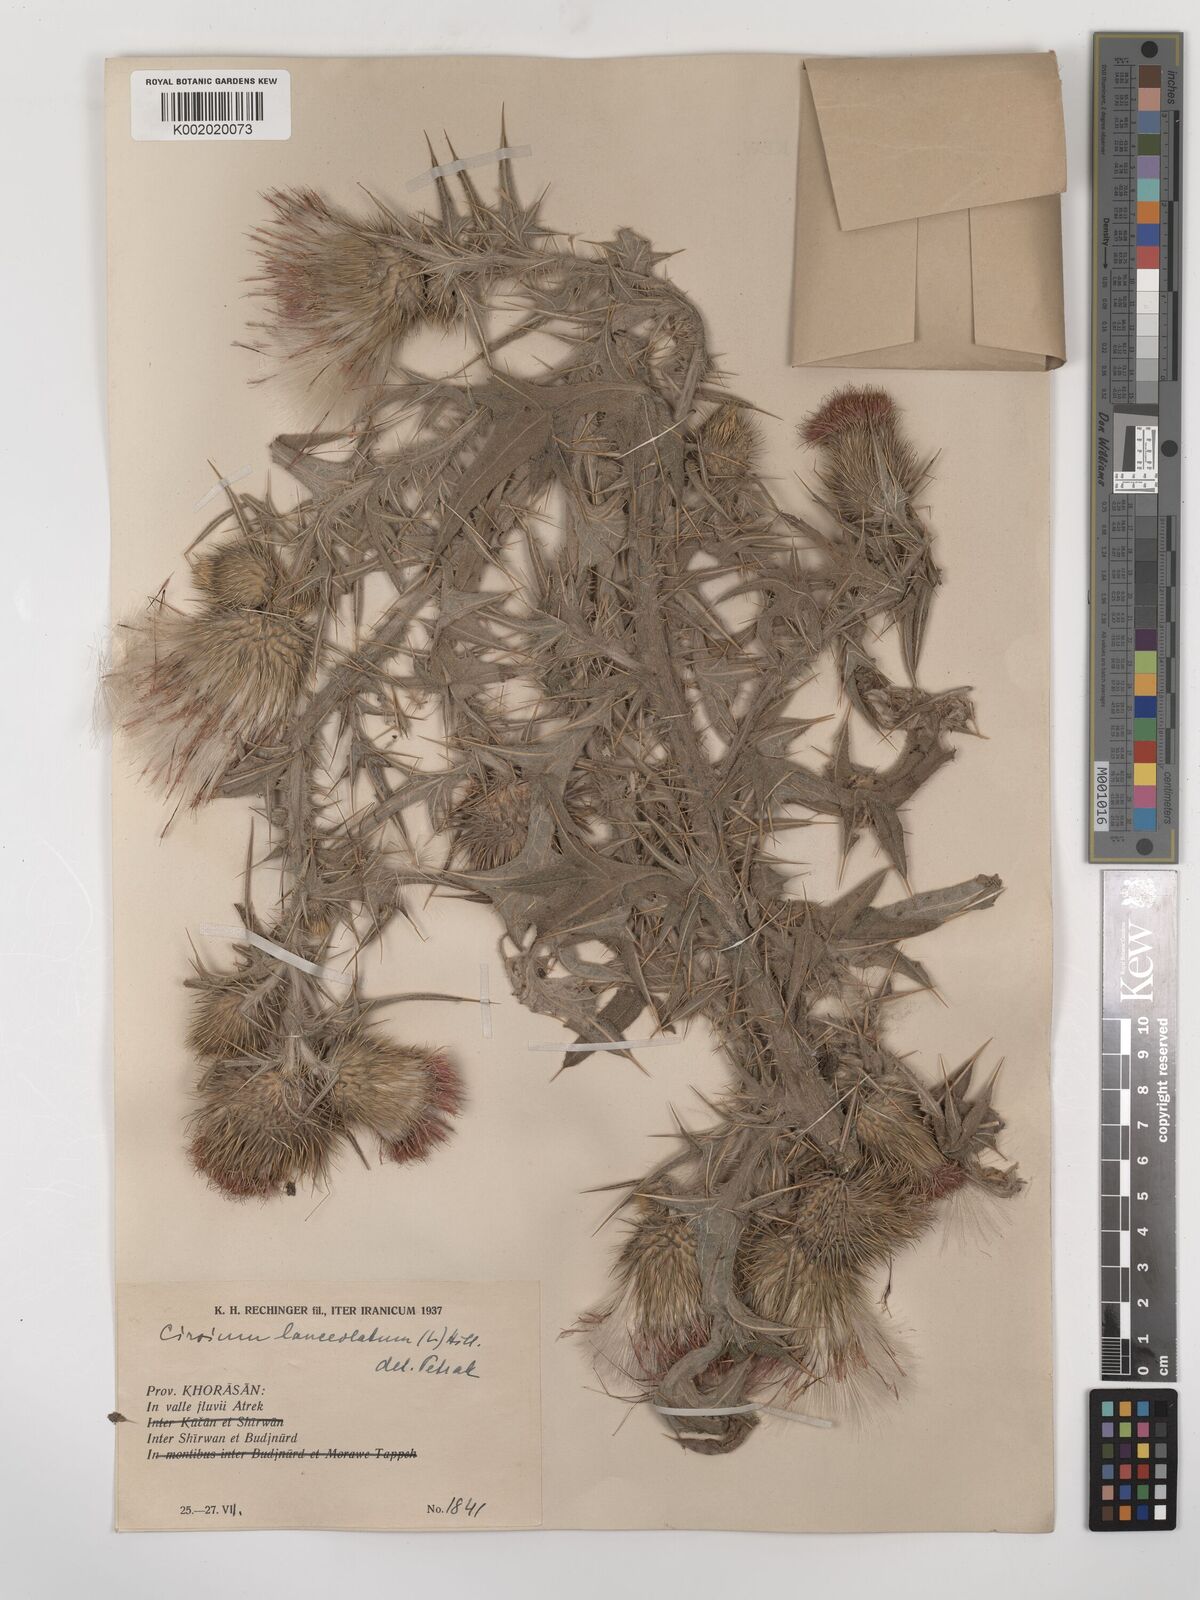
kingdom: Plantae
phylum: Tracheophyta
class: Magnoliopsida
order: Asterales
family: Asteraceae
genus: Cirsium
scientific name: Cirsium vulgare
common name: Bull thistle
